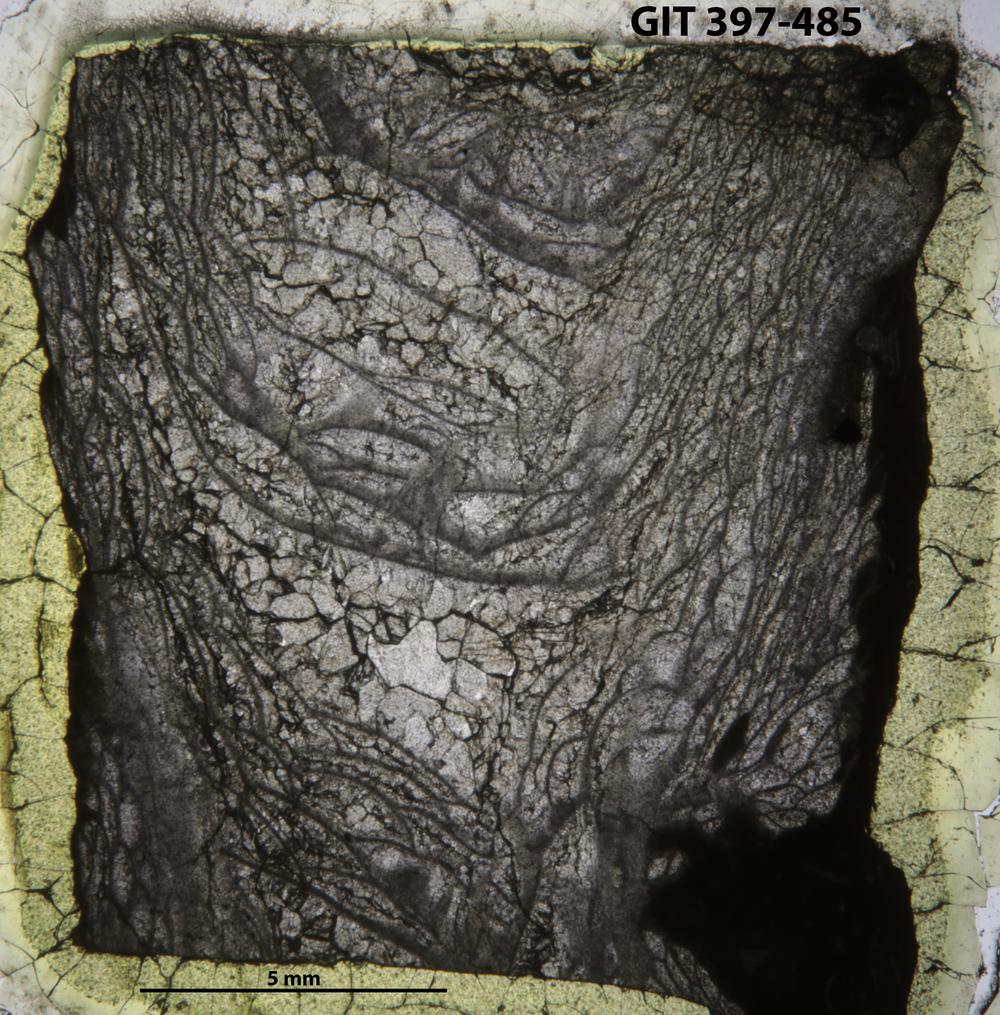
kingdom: Animalia
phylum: Cnidaria
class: Anthozoa
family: Lykophyllidae
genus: Plasmophyllum
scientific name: Plasmophyllum
